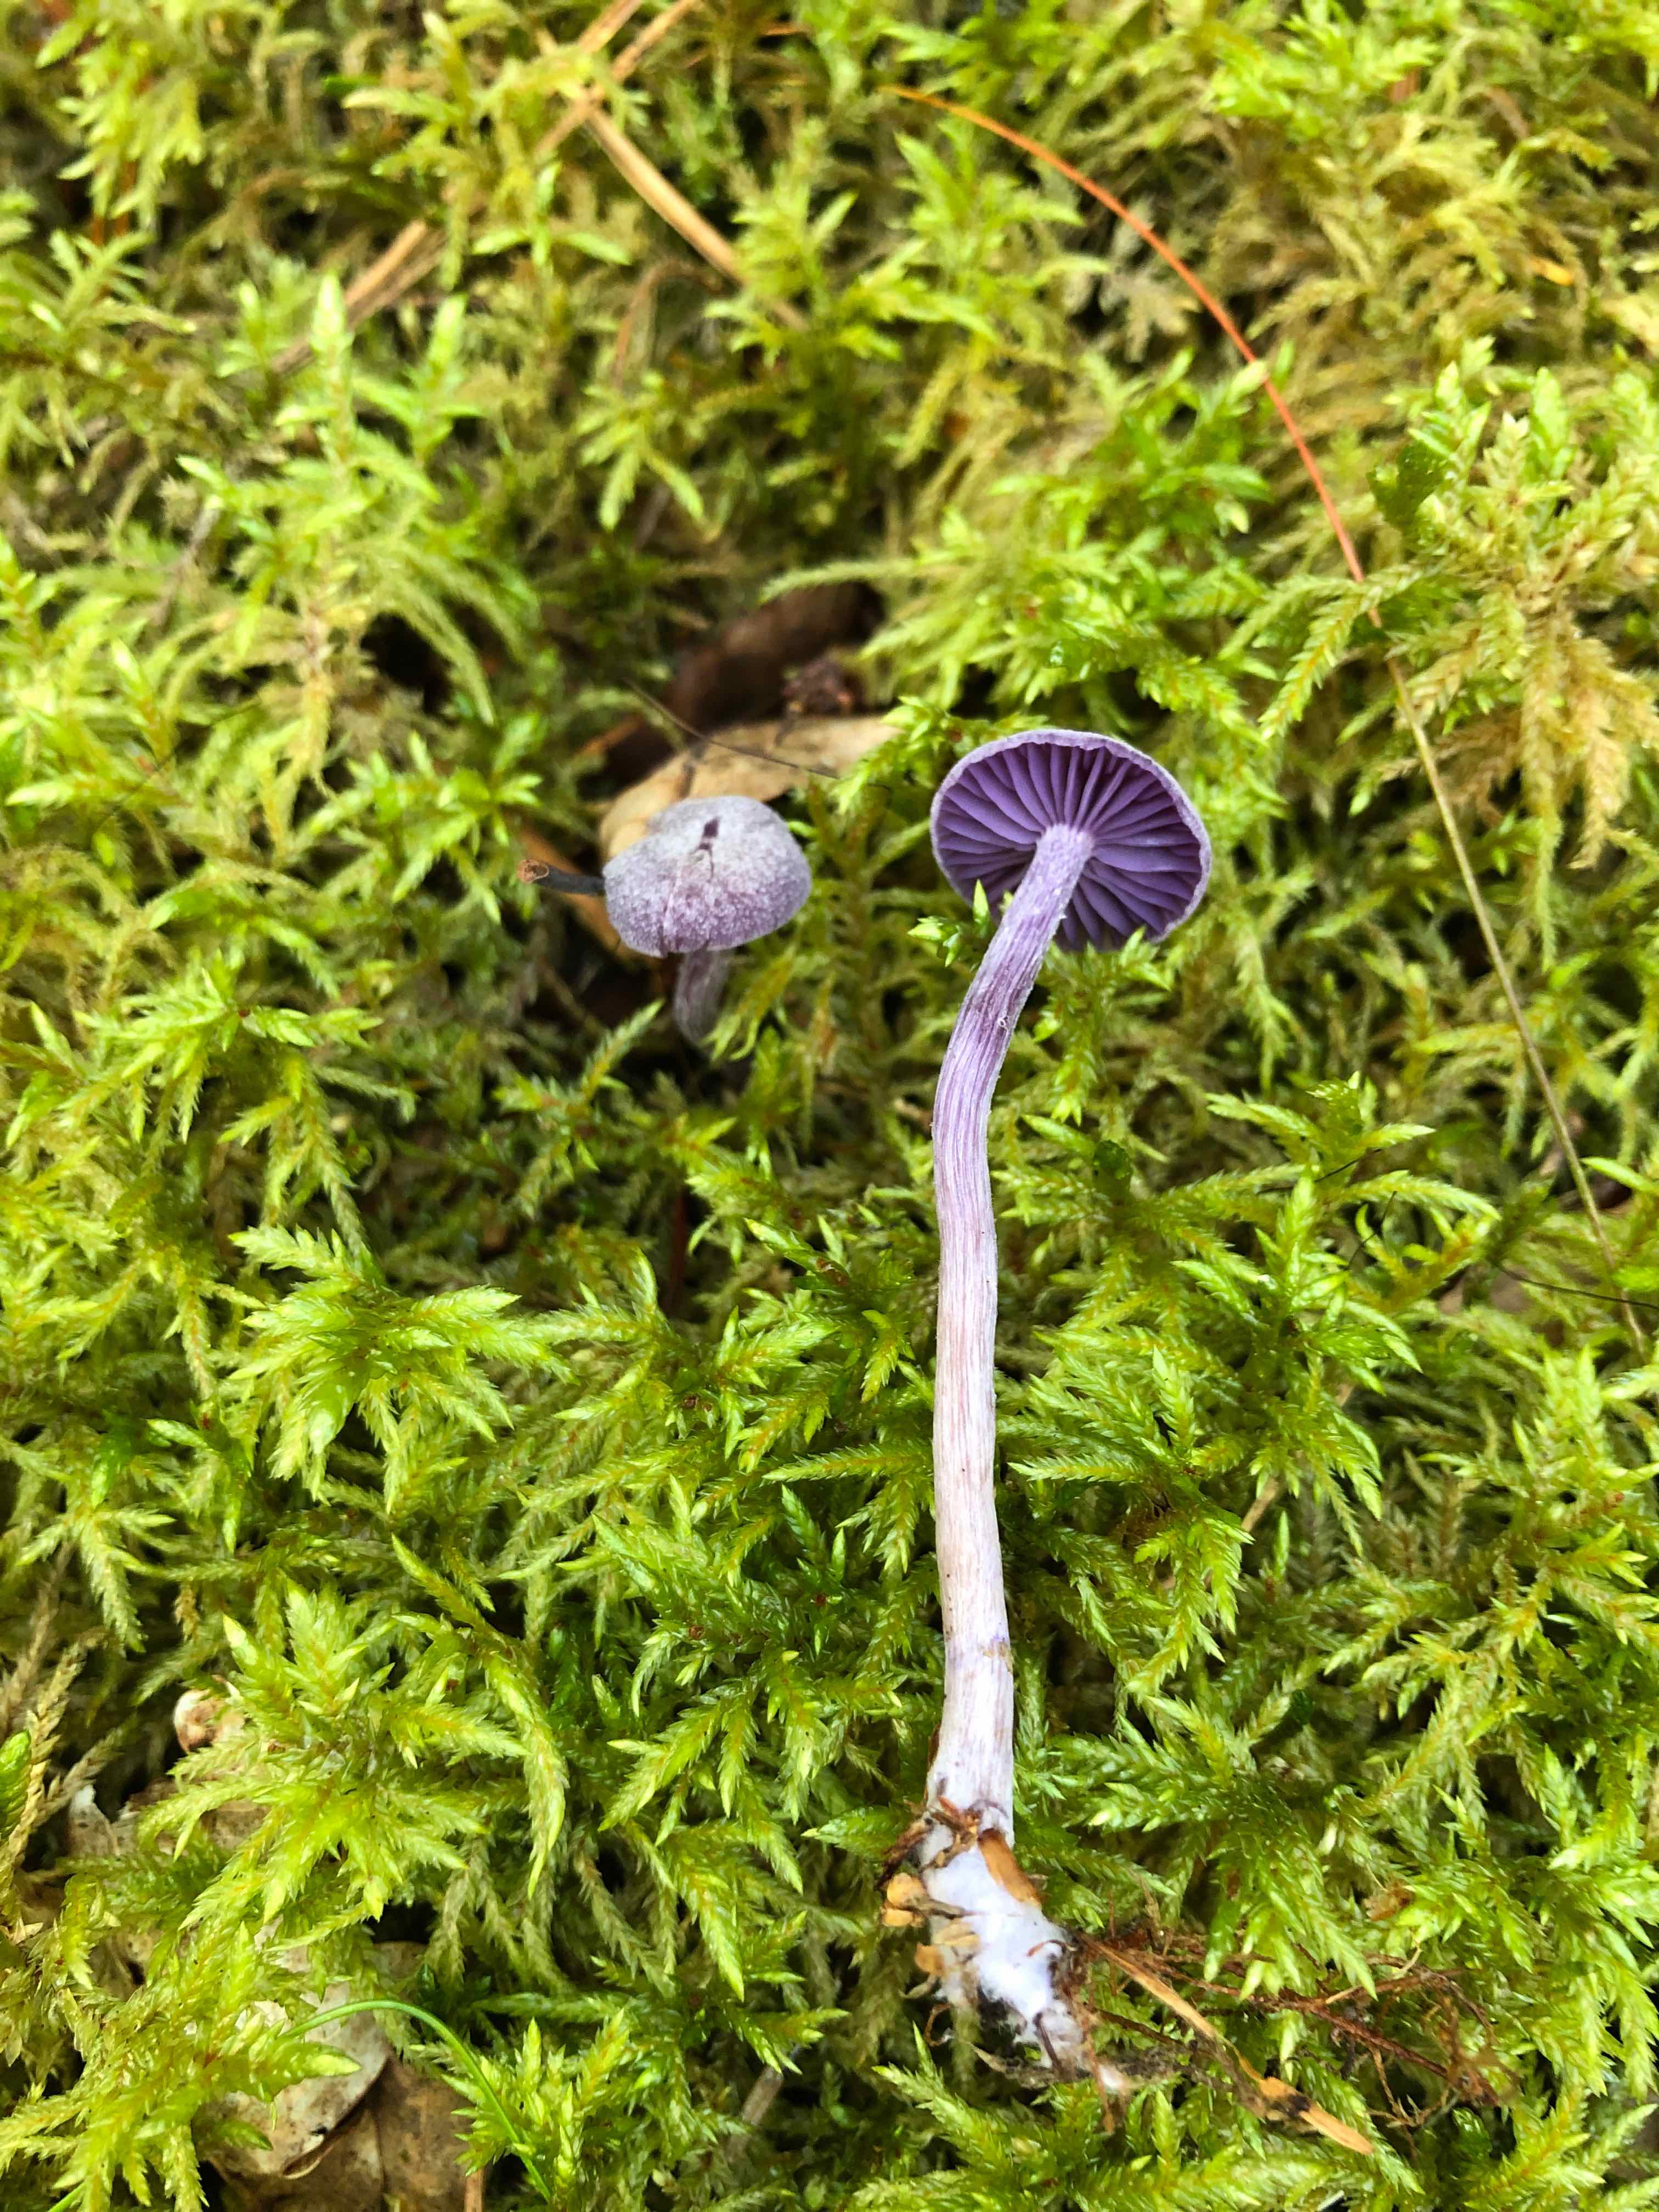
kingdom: Fungi
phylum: Basidiomycota
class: Agaricomycetes
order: Agaricales
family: Hydnangiaceae
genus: Laccaria
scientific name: Laccaria amethystina
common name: violet ametysthat
